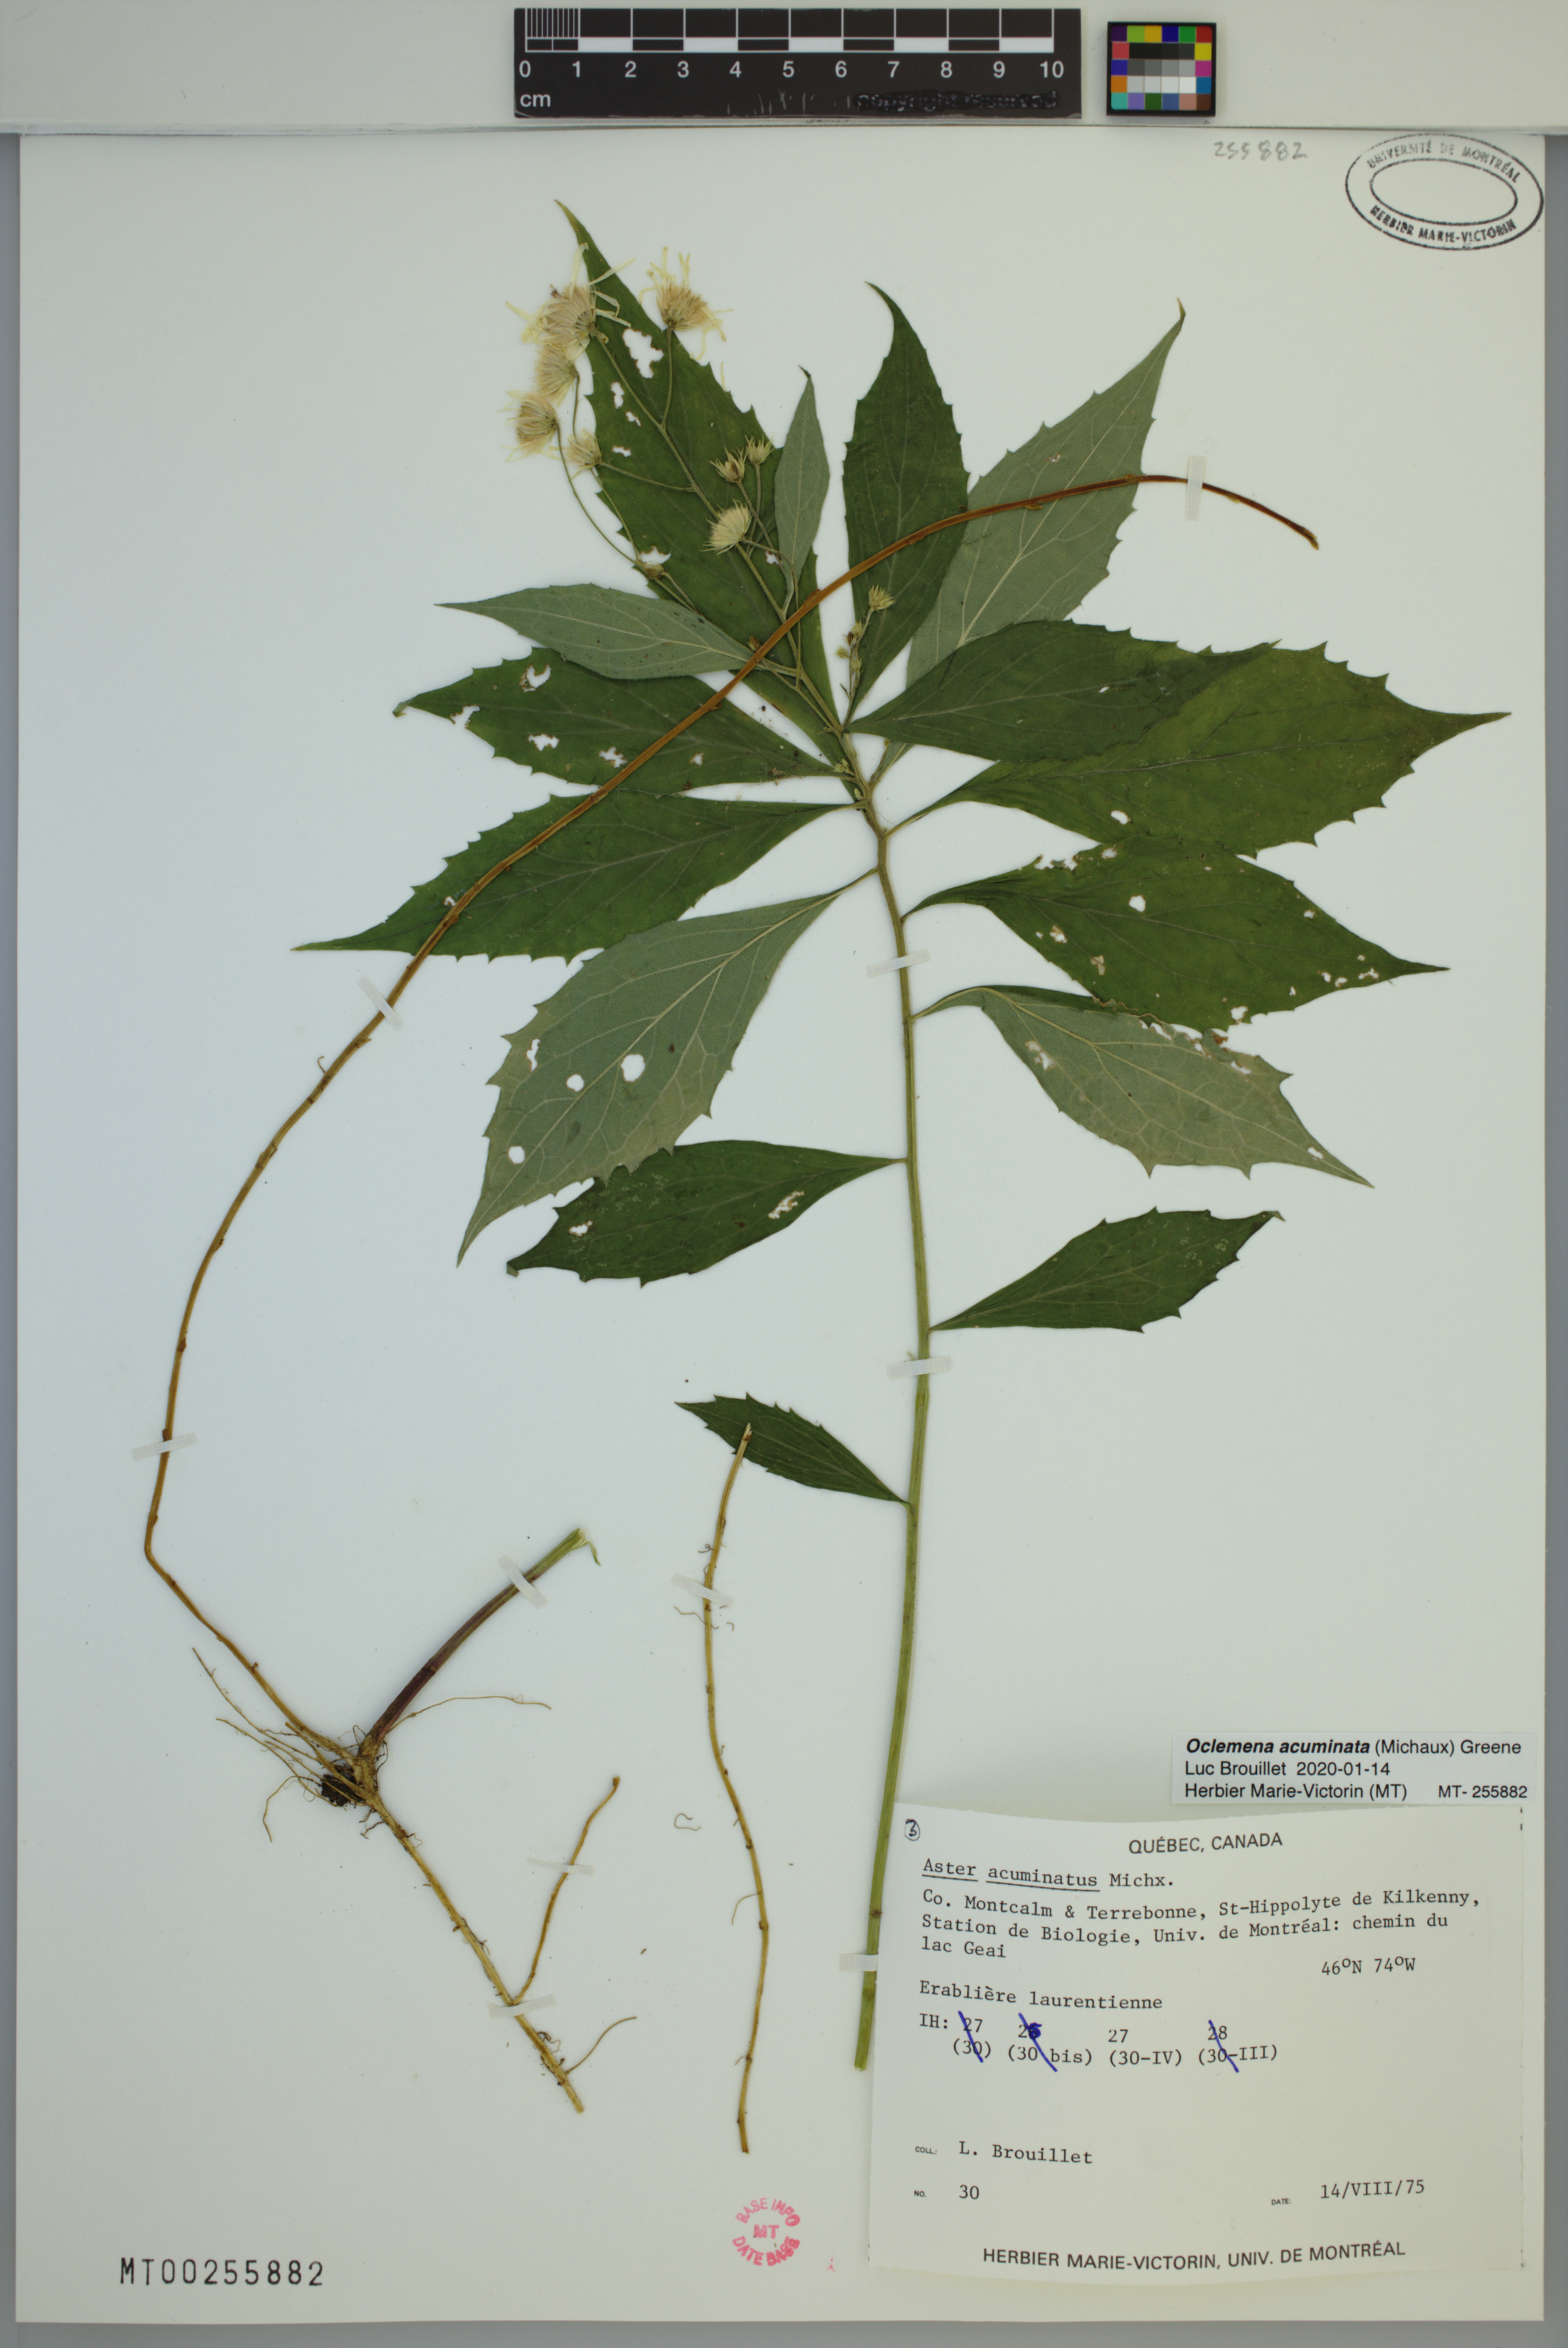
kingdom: Plantae
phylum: Tracheophyta
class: Magnoliopsida
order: Asterales
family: Asteraceae
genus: Oclemena
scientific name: Oclemena acuminata
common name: Mountain aster
